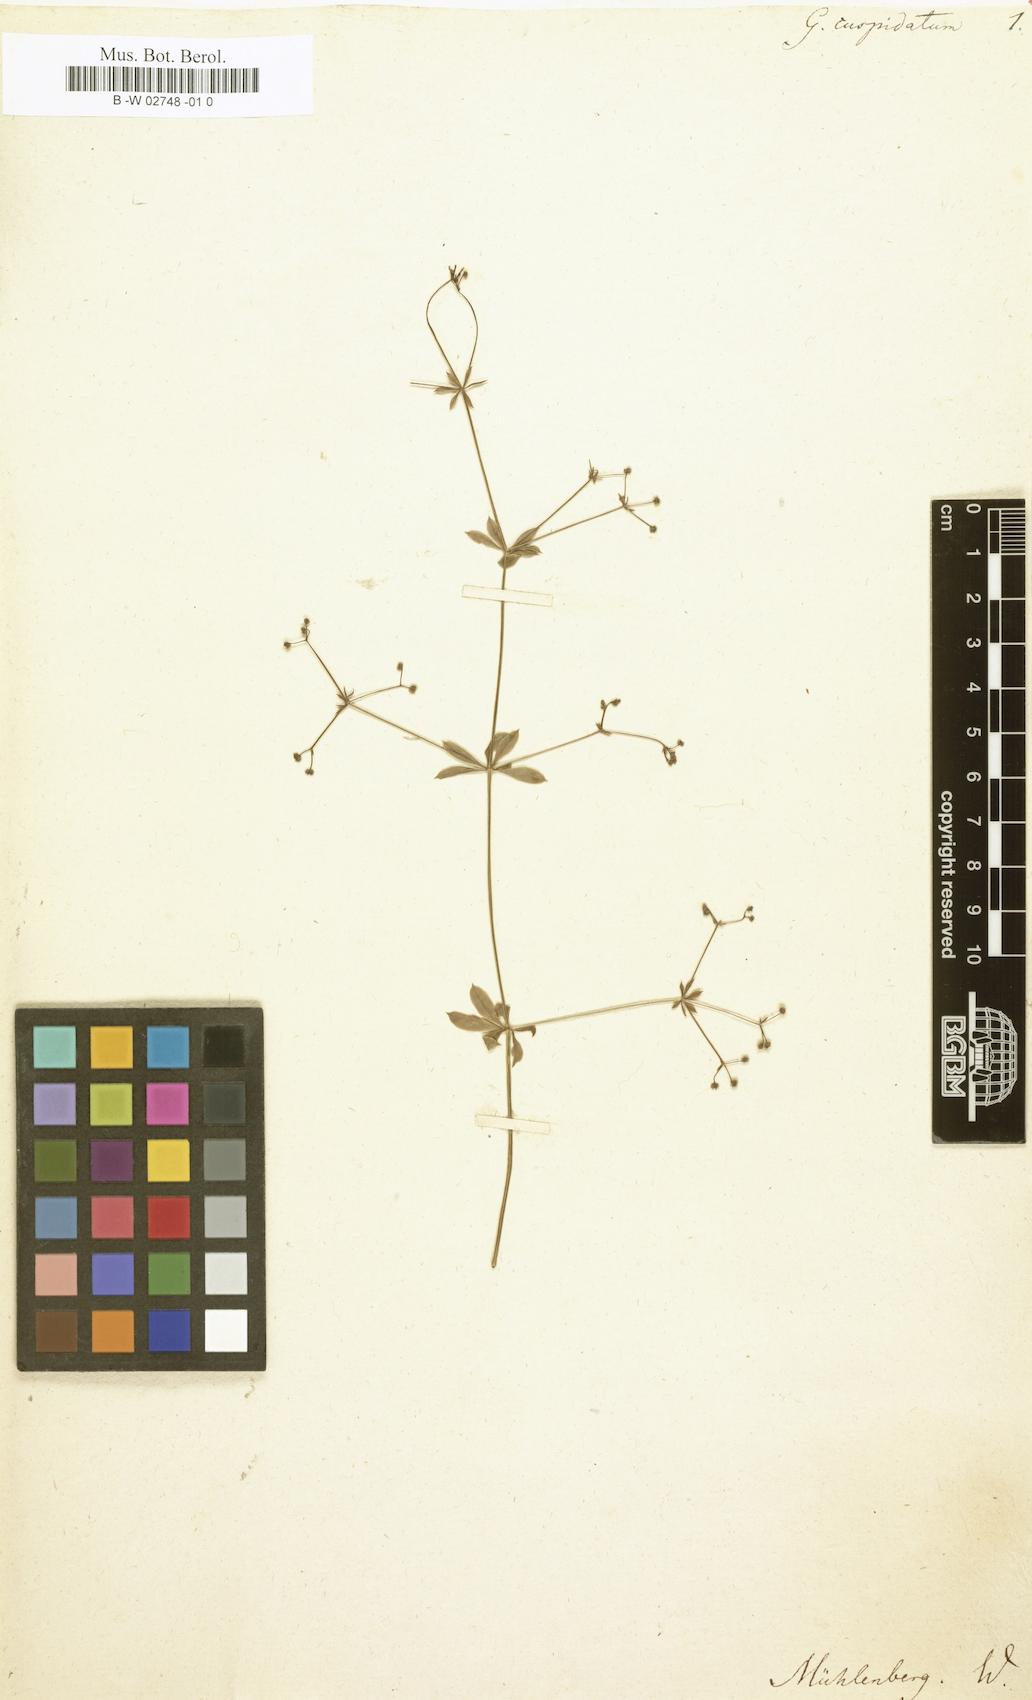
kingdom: Plantae
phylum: Tracheophyta
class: Magnoliopsida
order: Gentianales
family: Rubiaceae
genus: Galium
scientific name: Galium cuspidatum
